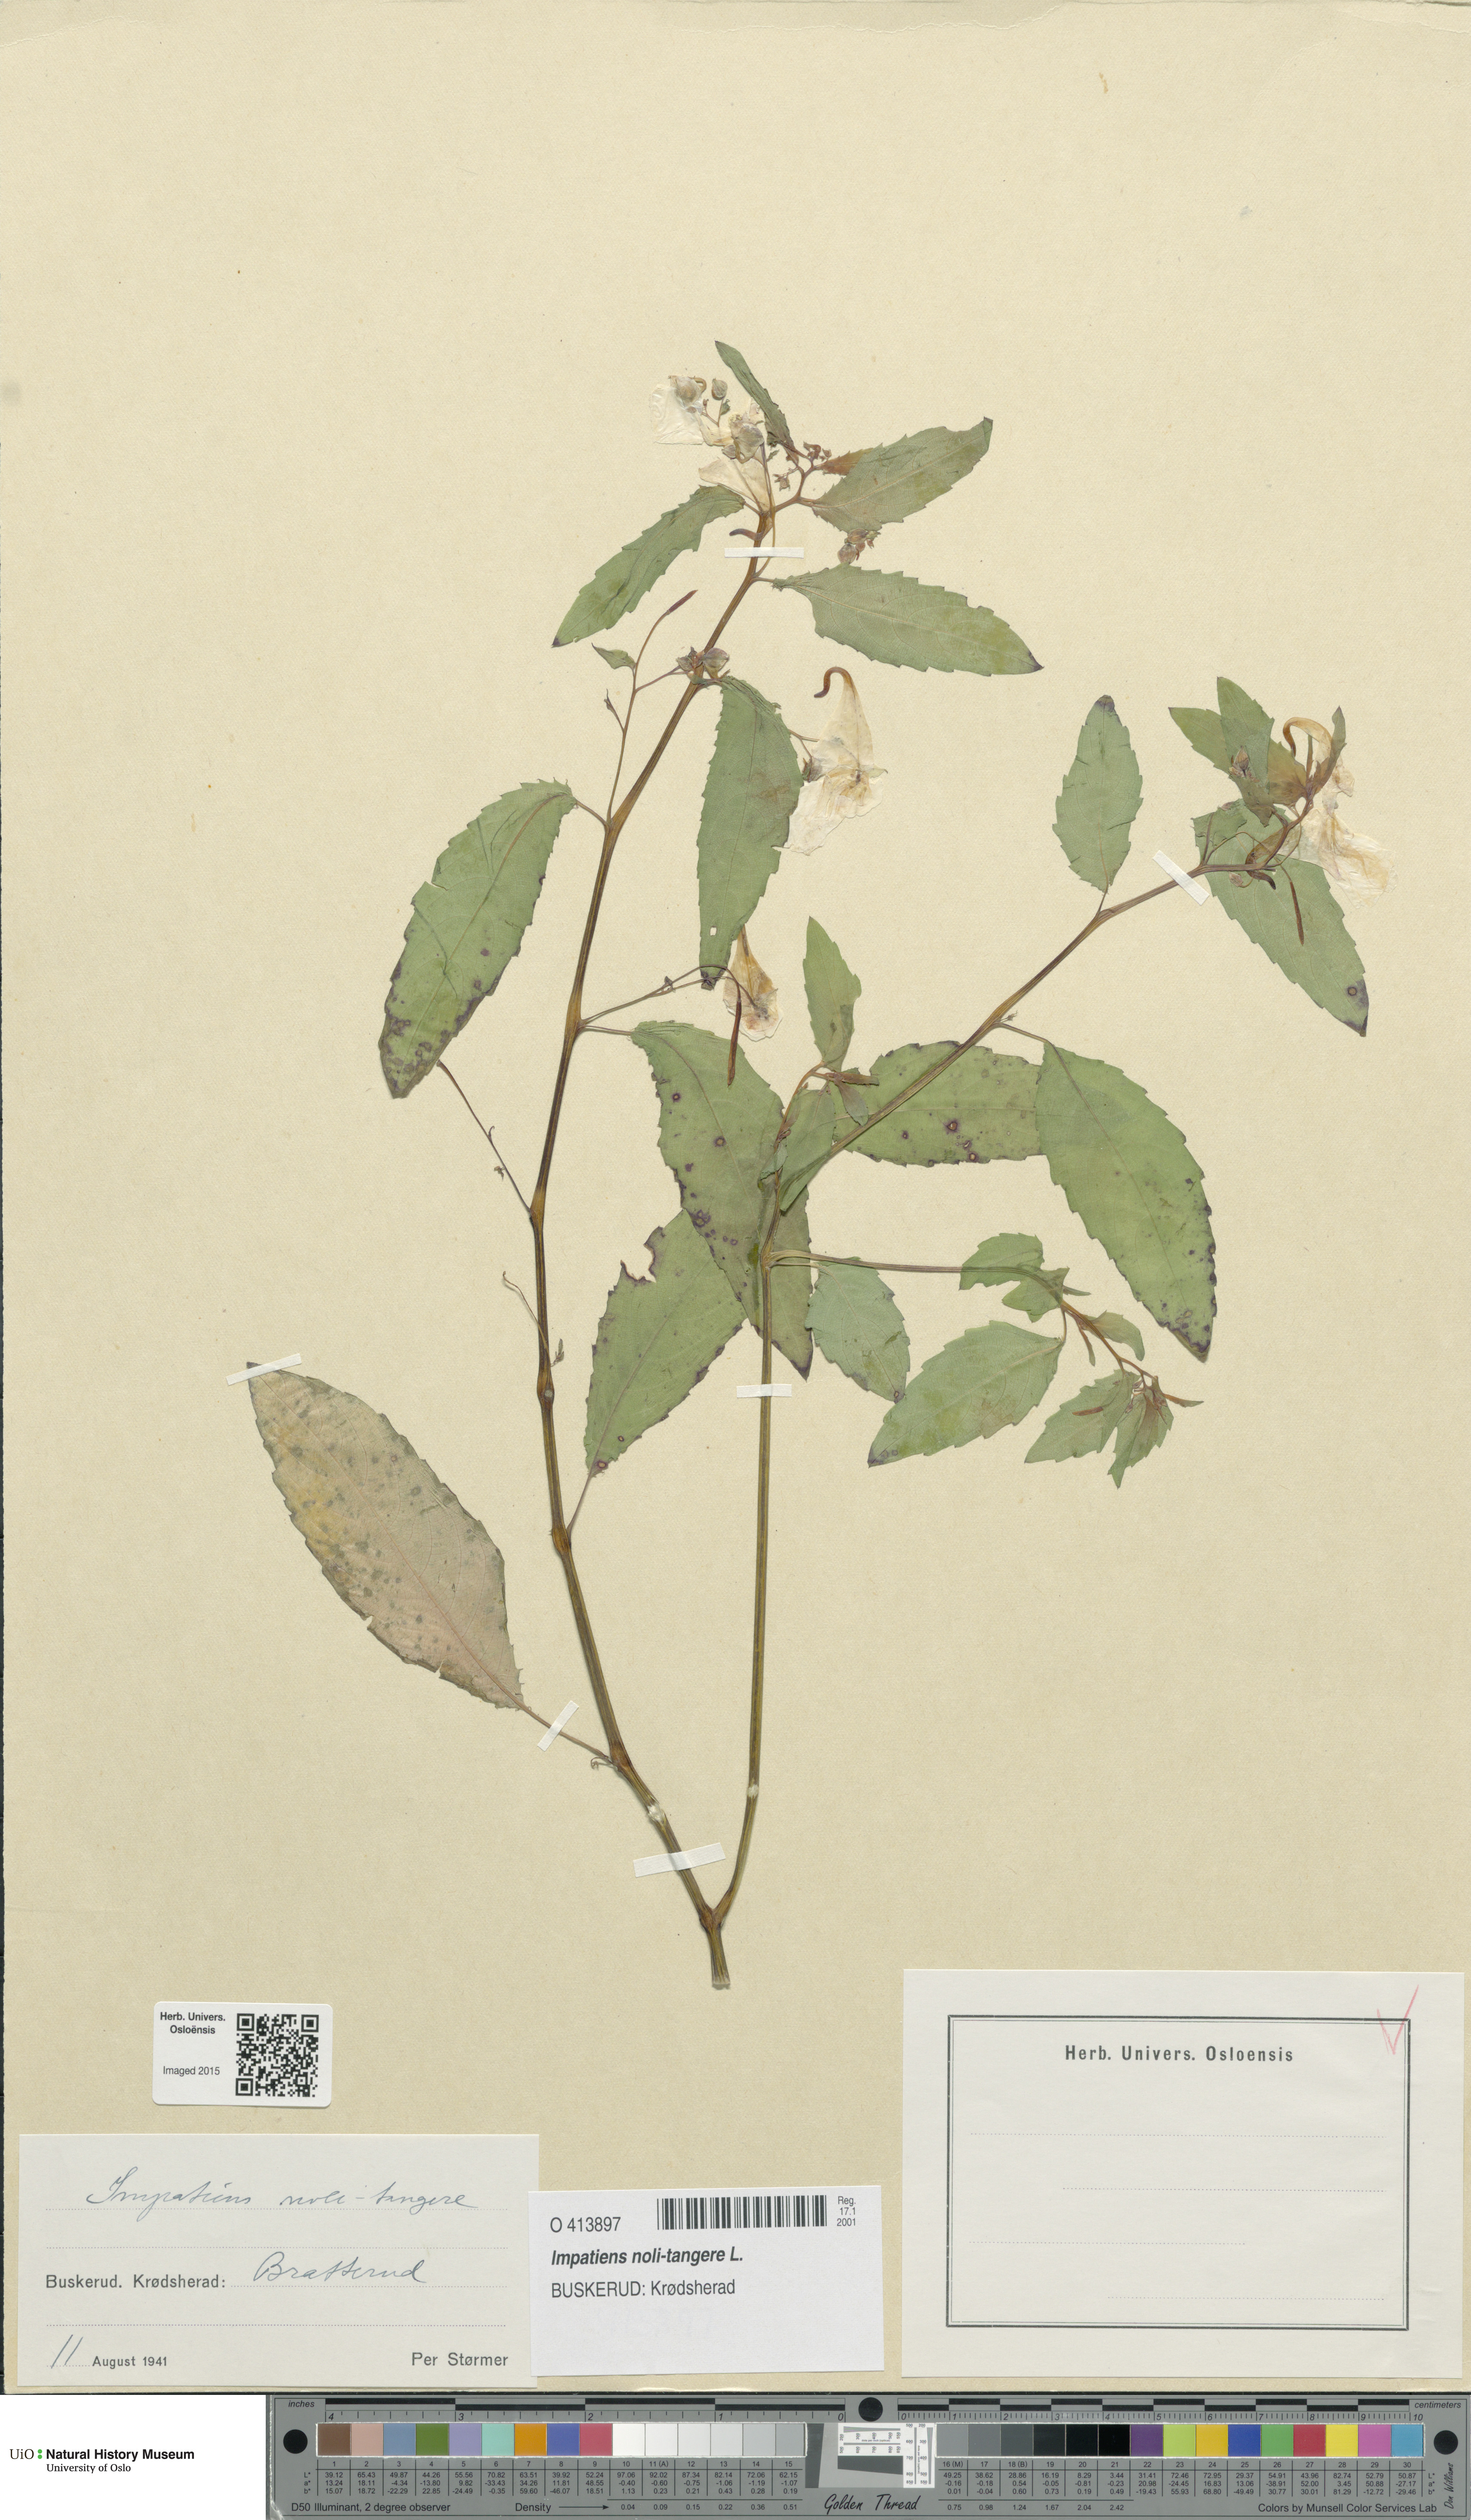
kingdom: Plantae
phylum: Tracheophyta
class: Magnoliopsida
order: Ericales
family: Balsaminaceae
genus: Impatiens
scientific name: Impatiens noli-tangere
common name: Touch-me-not balsam
